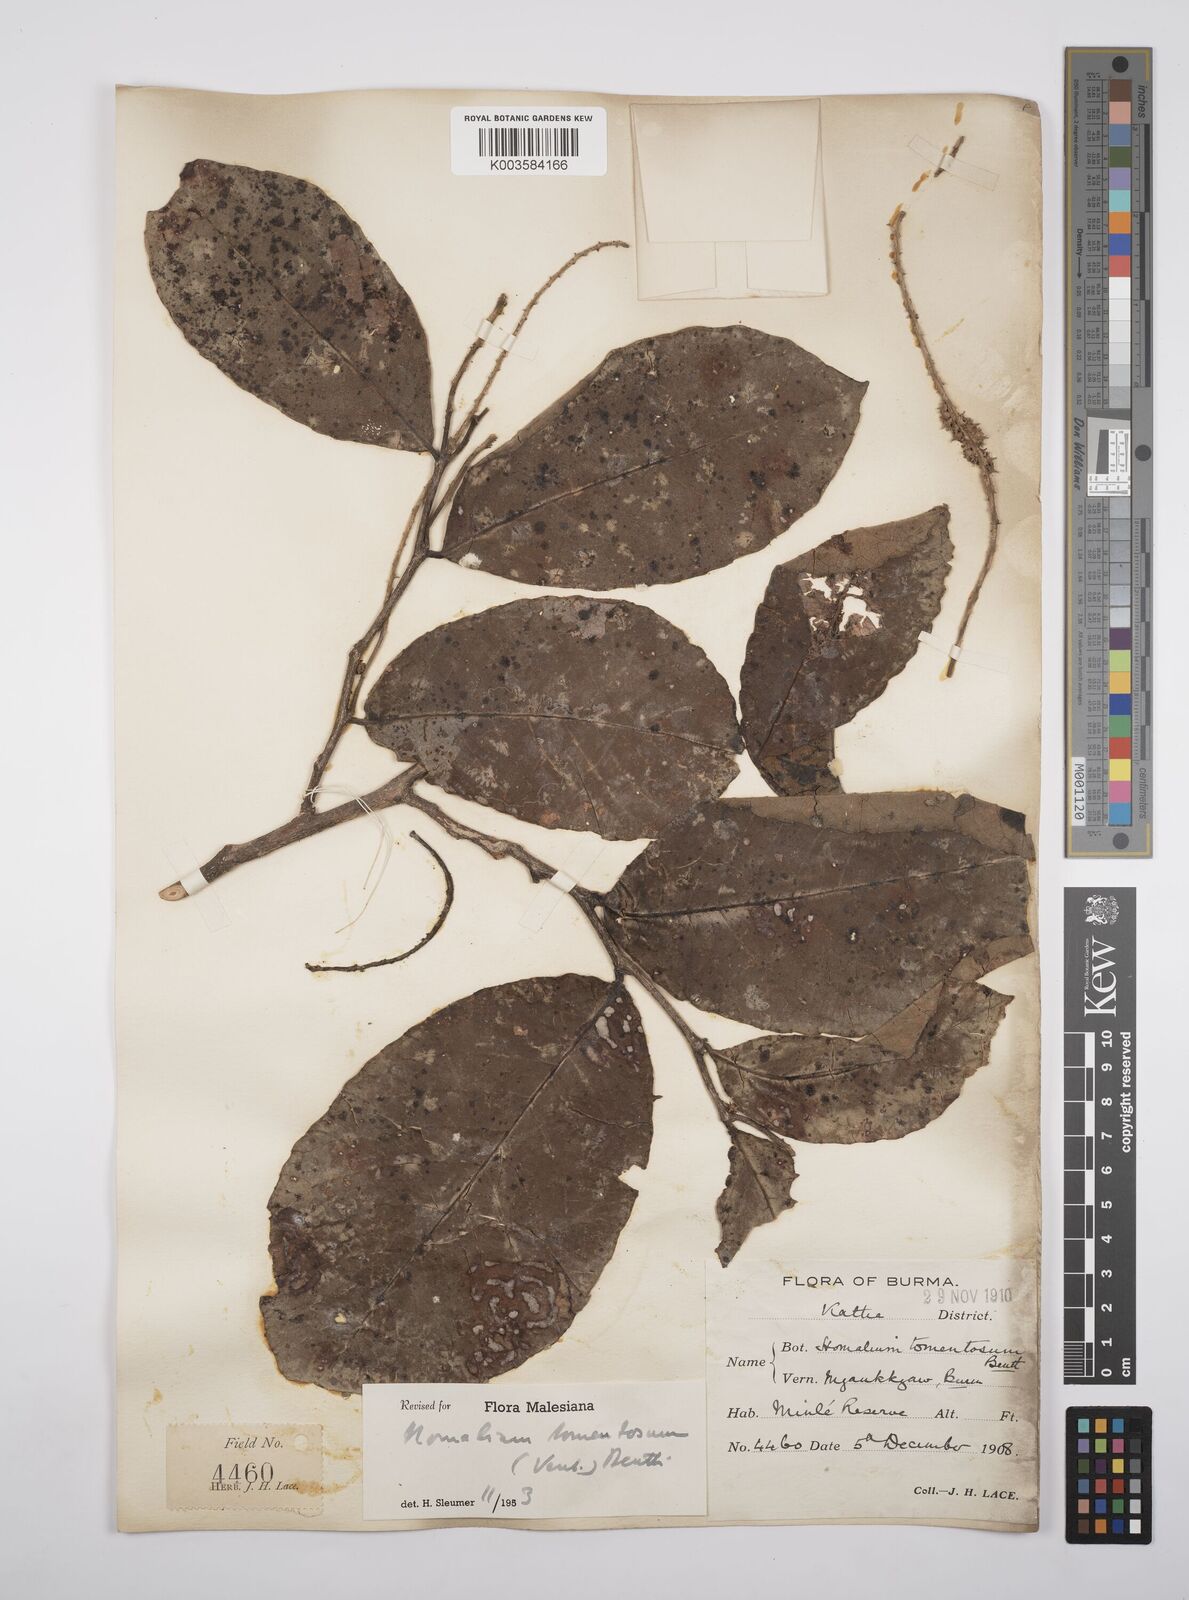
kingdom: Plantae
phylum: Tracheophyta
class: Magnoliopsida
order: Malpighiales
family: Salicaceae
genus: Homalium
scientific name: Homalium tomentosum
